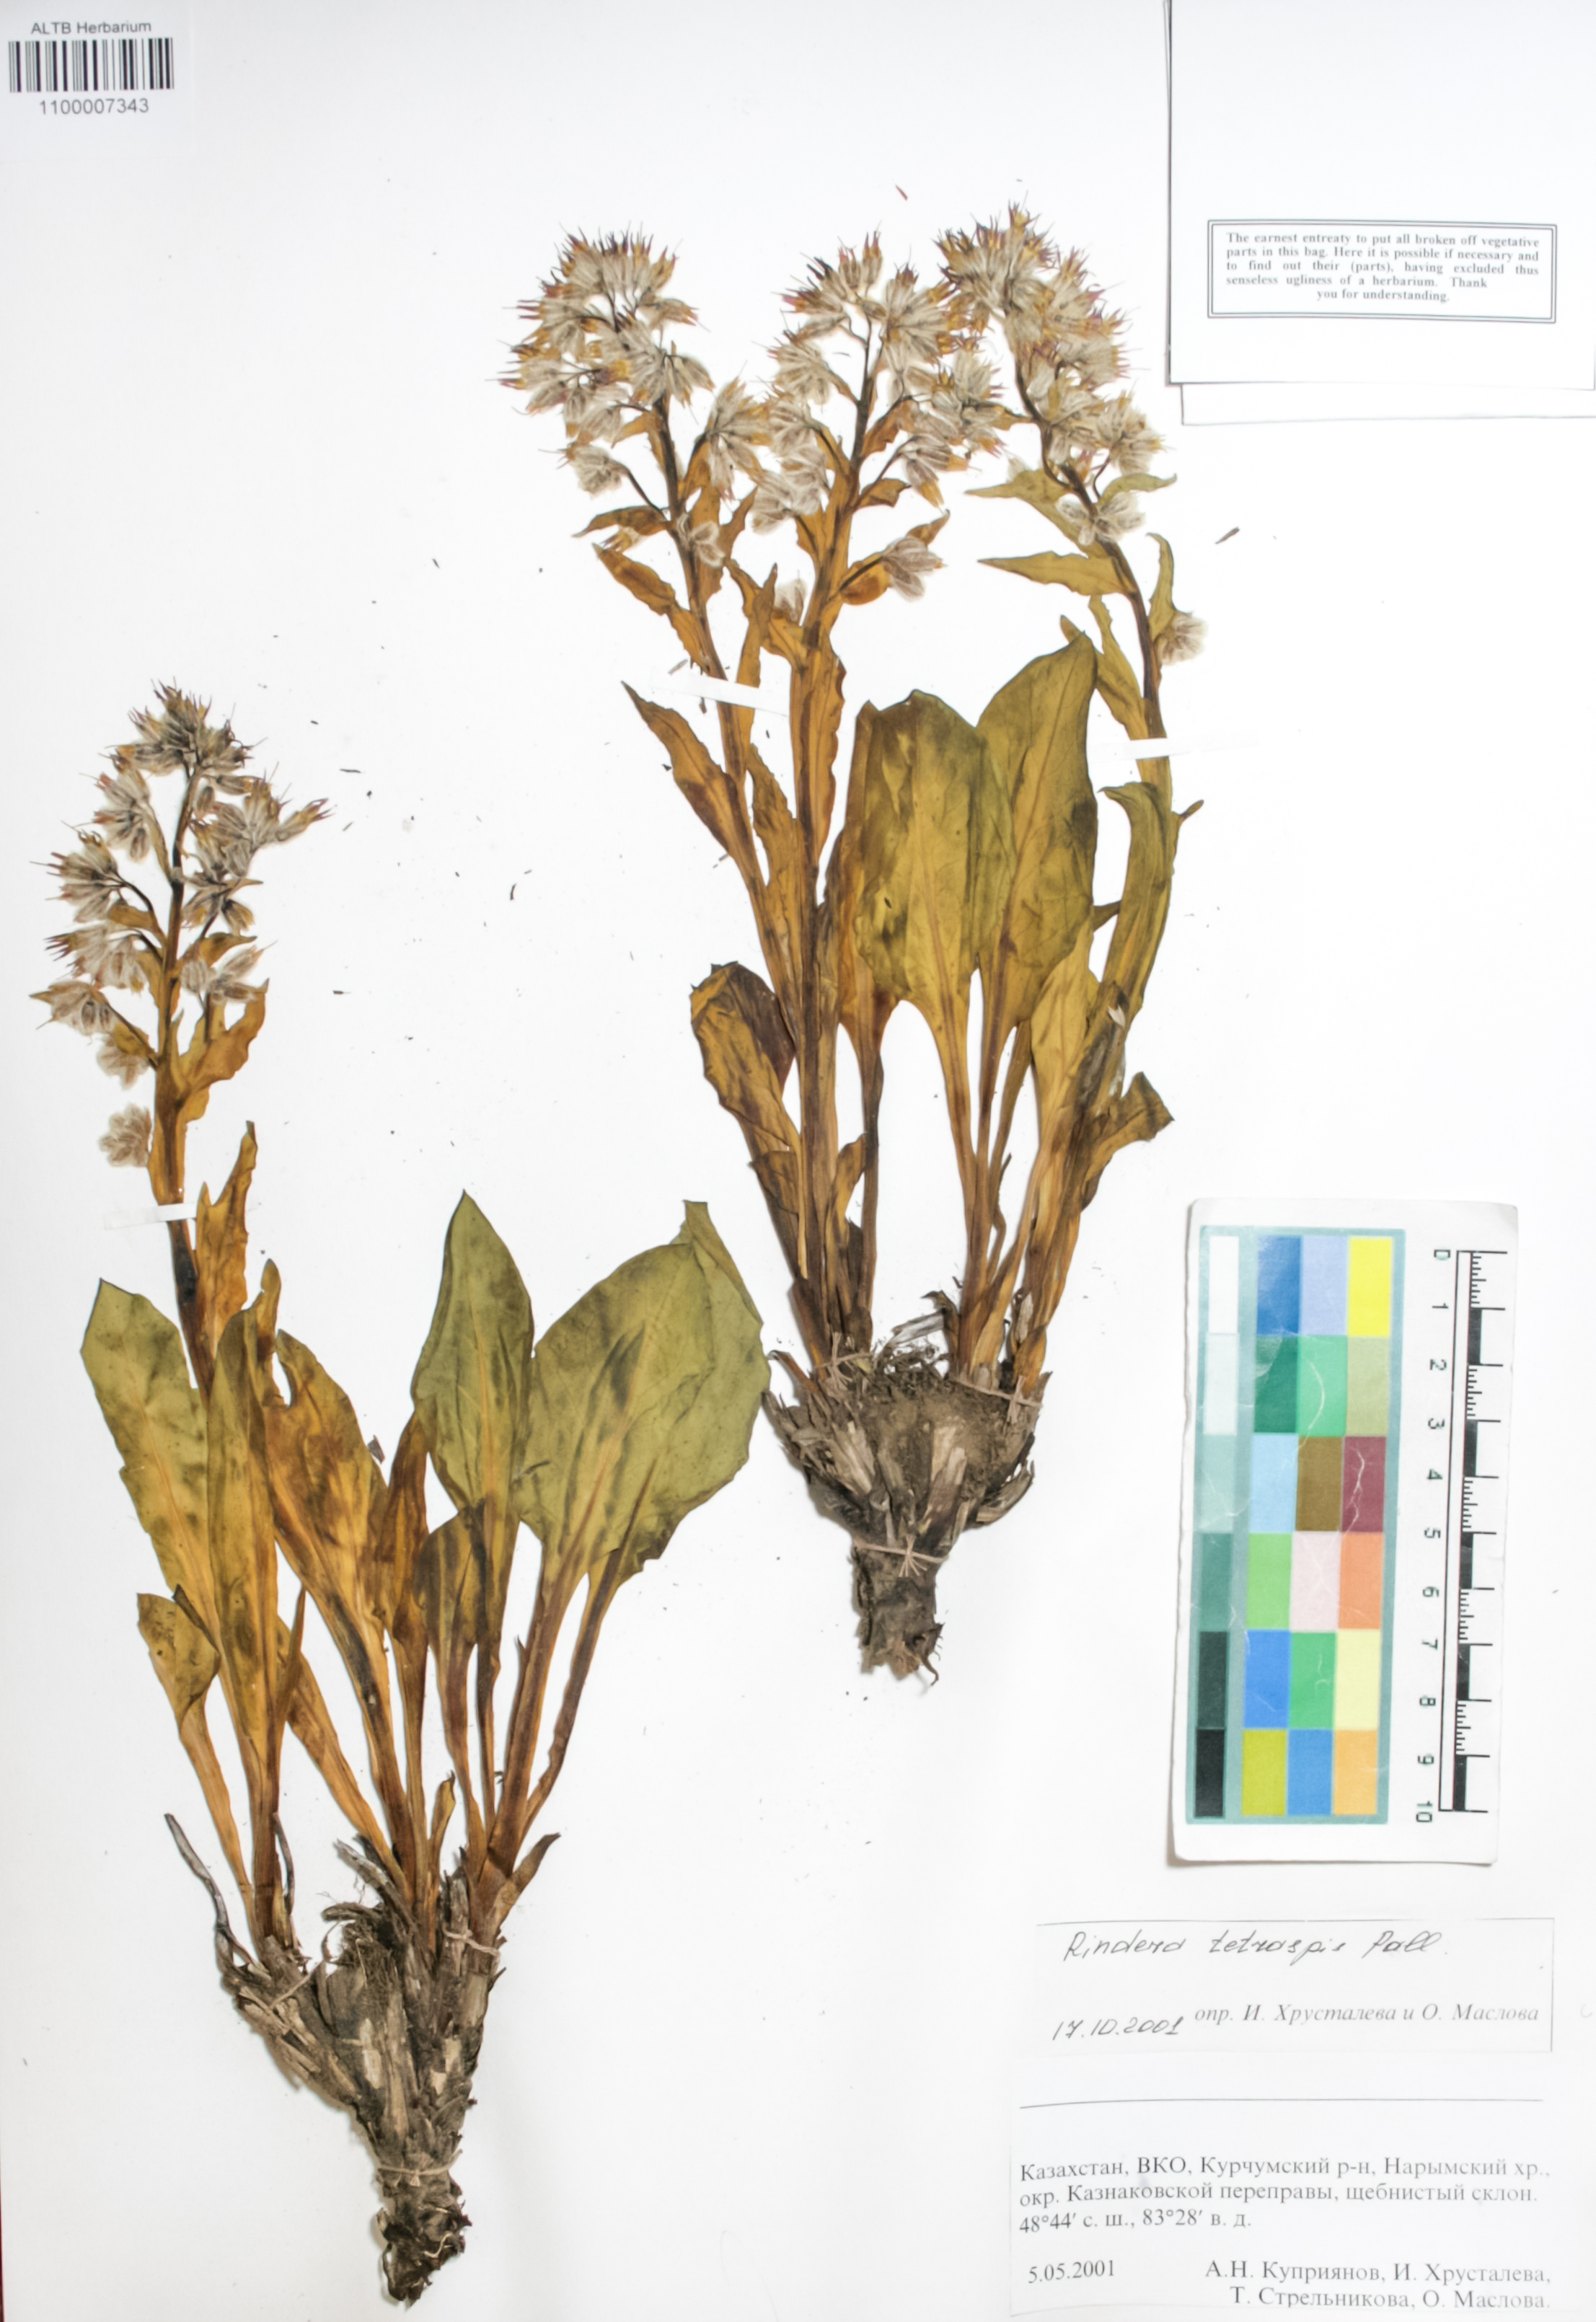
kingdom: Plantae
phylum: Tracheophyta
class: Magnoliopsida
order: Boraginales
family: Boraginaceae
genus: Rindera
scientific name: Rindera tetraspis
